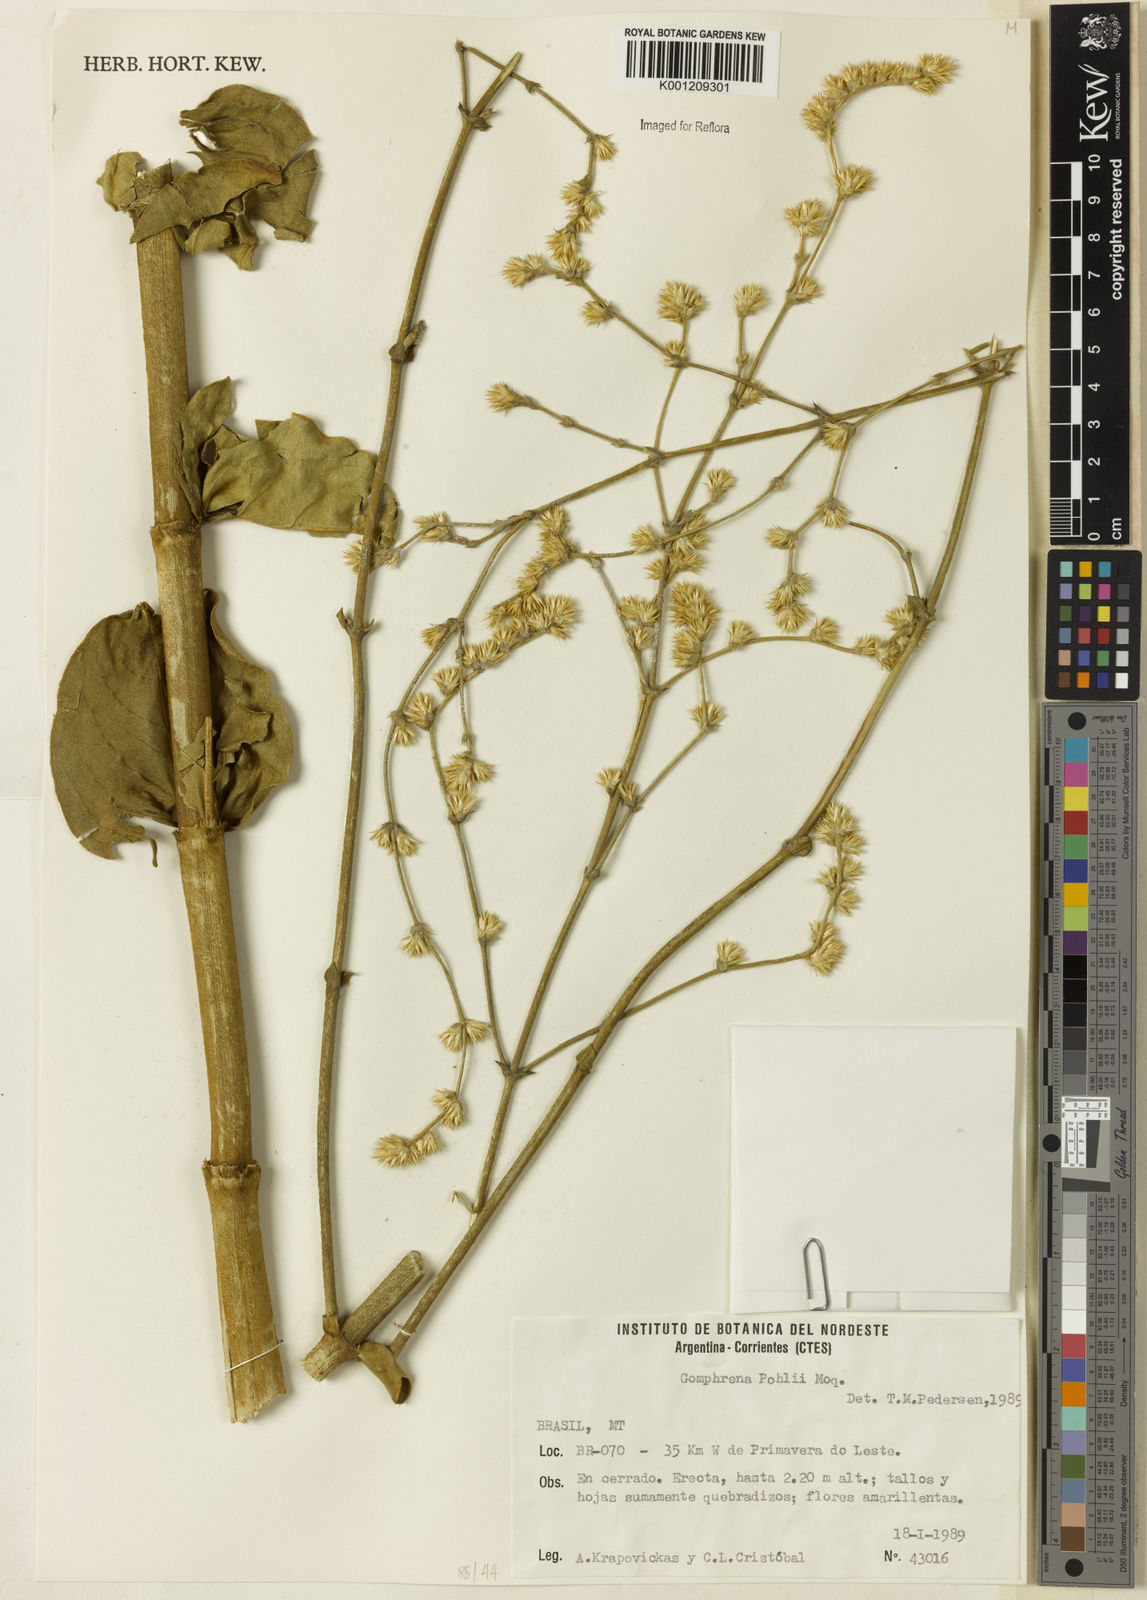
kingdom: Plantae
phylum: Tracheophyta
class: Magnoliopsida
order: Caryophyllales
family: Amaranthaceae
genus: Gomphrena
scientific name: Gomphrena pohlii
